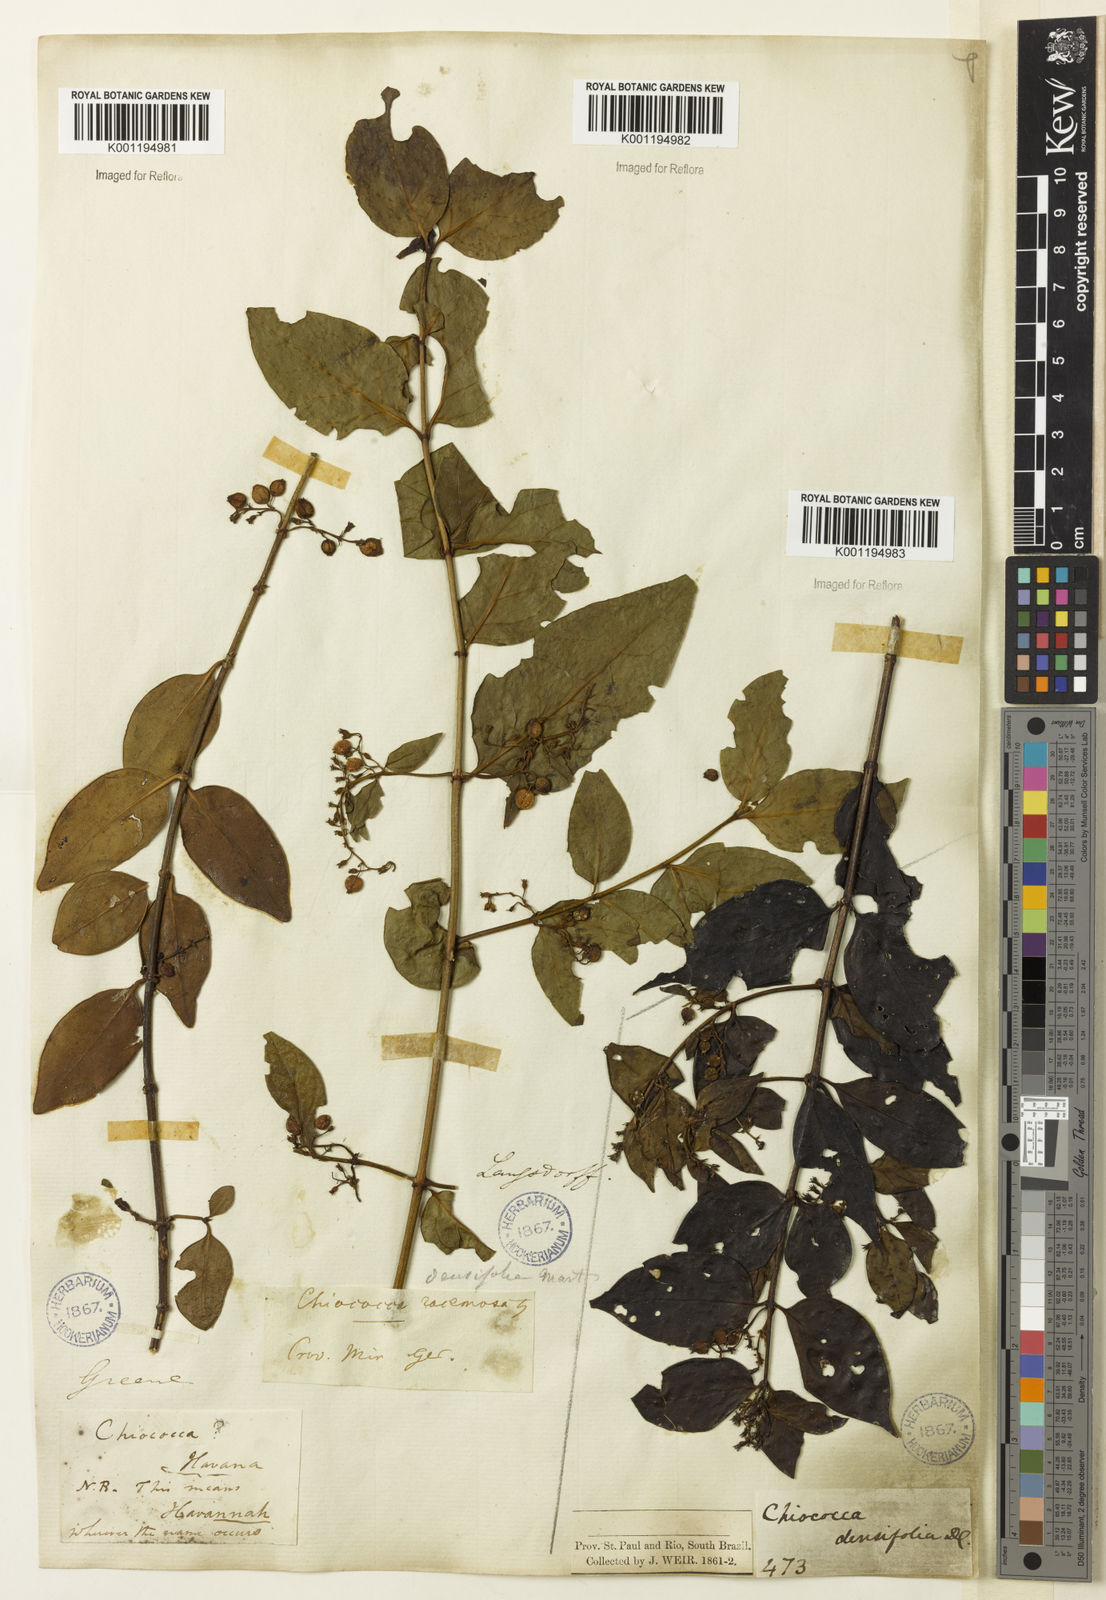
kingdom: Plantae
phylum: Tracheophyta
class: Magnoliopsida
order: Gentianales
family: Rubiaceae
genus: Chiococca
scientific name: Chiococca alba
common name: Snowberry
